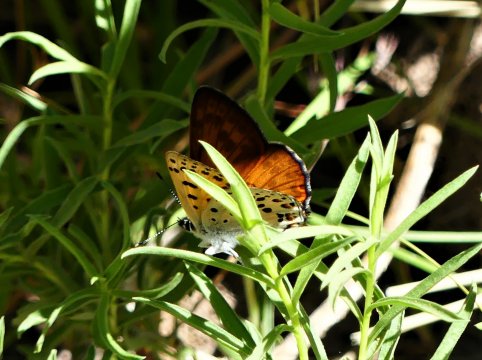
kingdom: Animalia
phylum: Arthropoda
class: Insecta
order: Lepidoptera
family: Lycaenidae
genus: Lycaena
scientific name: Lycaena gorgon
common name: Gorgon Copper
